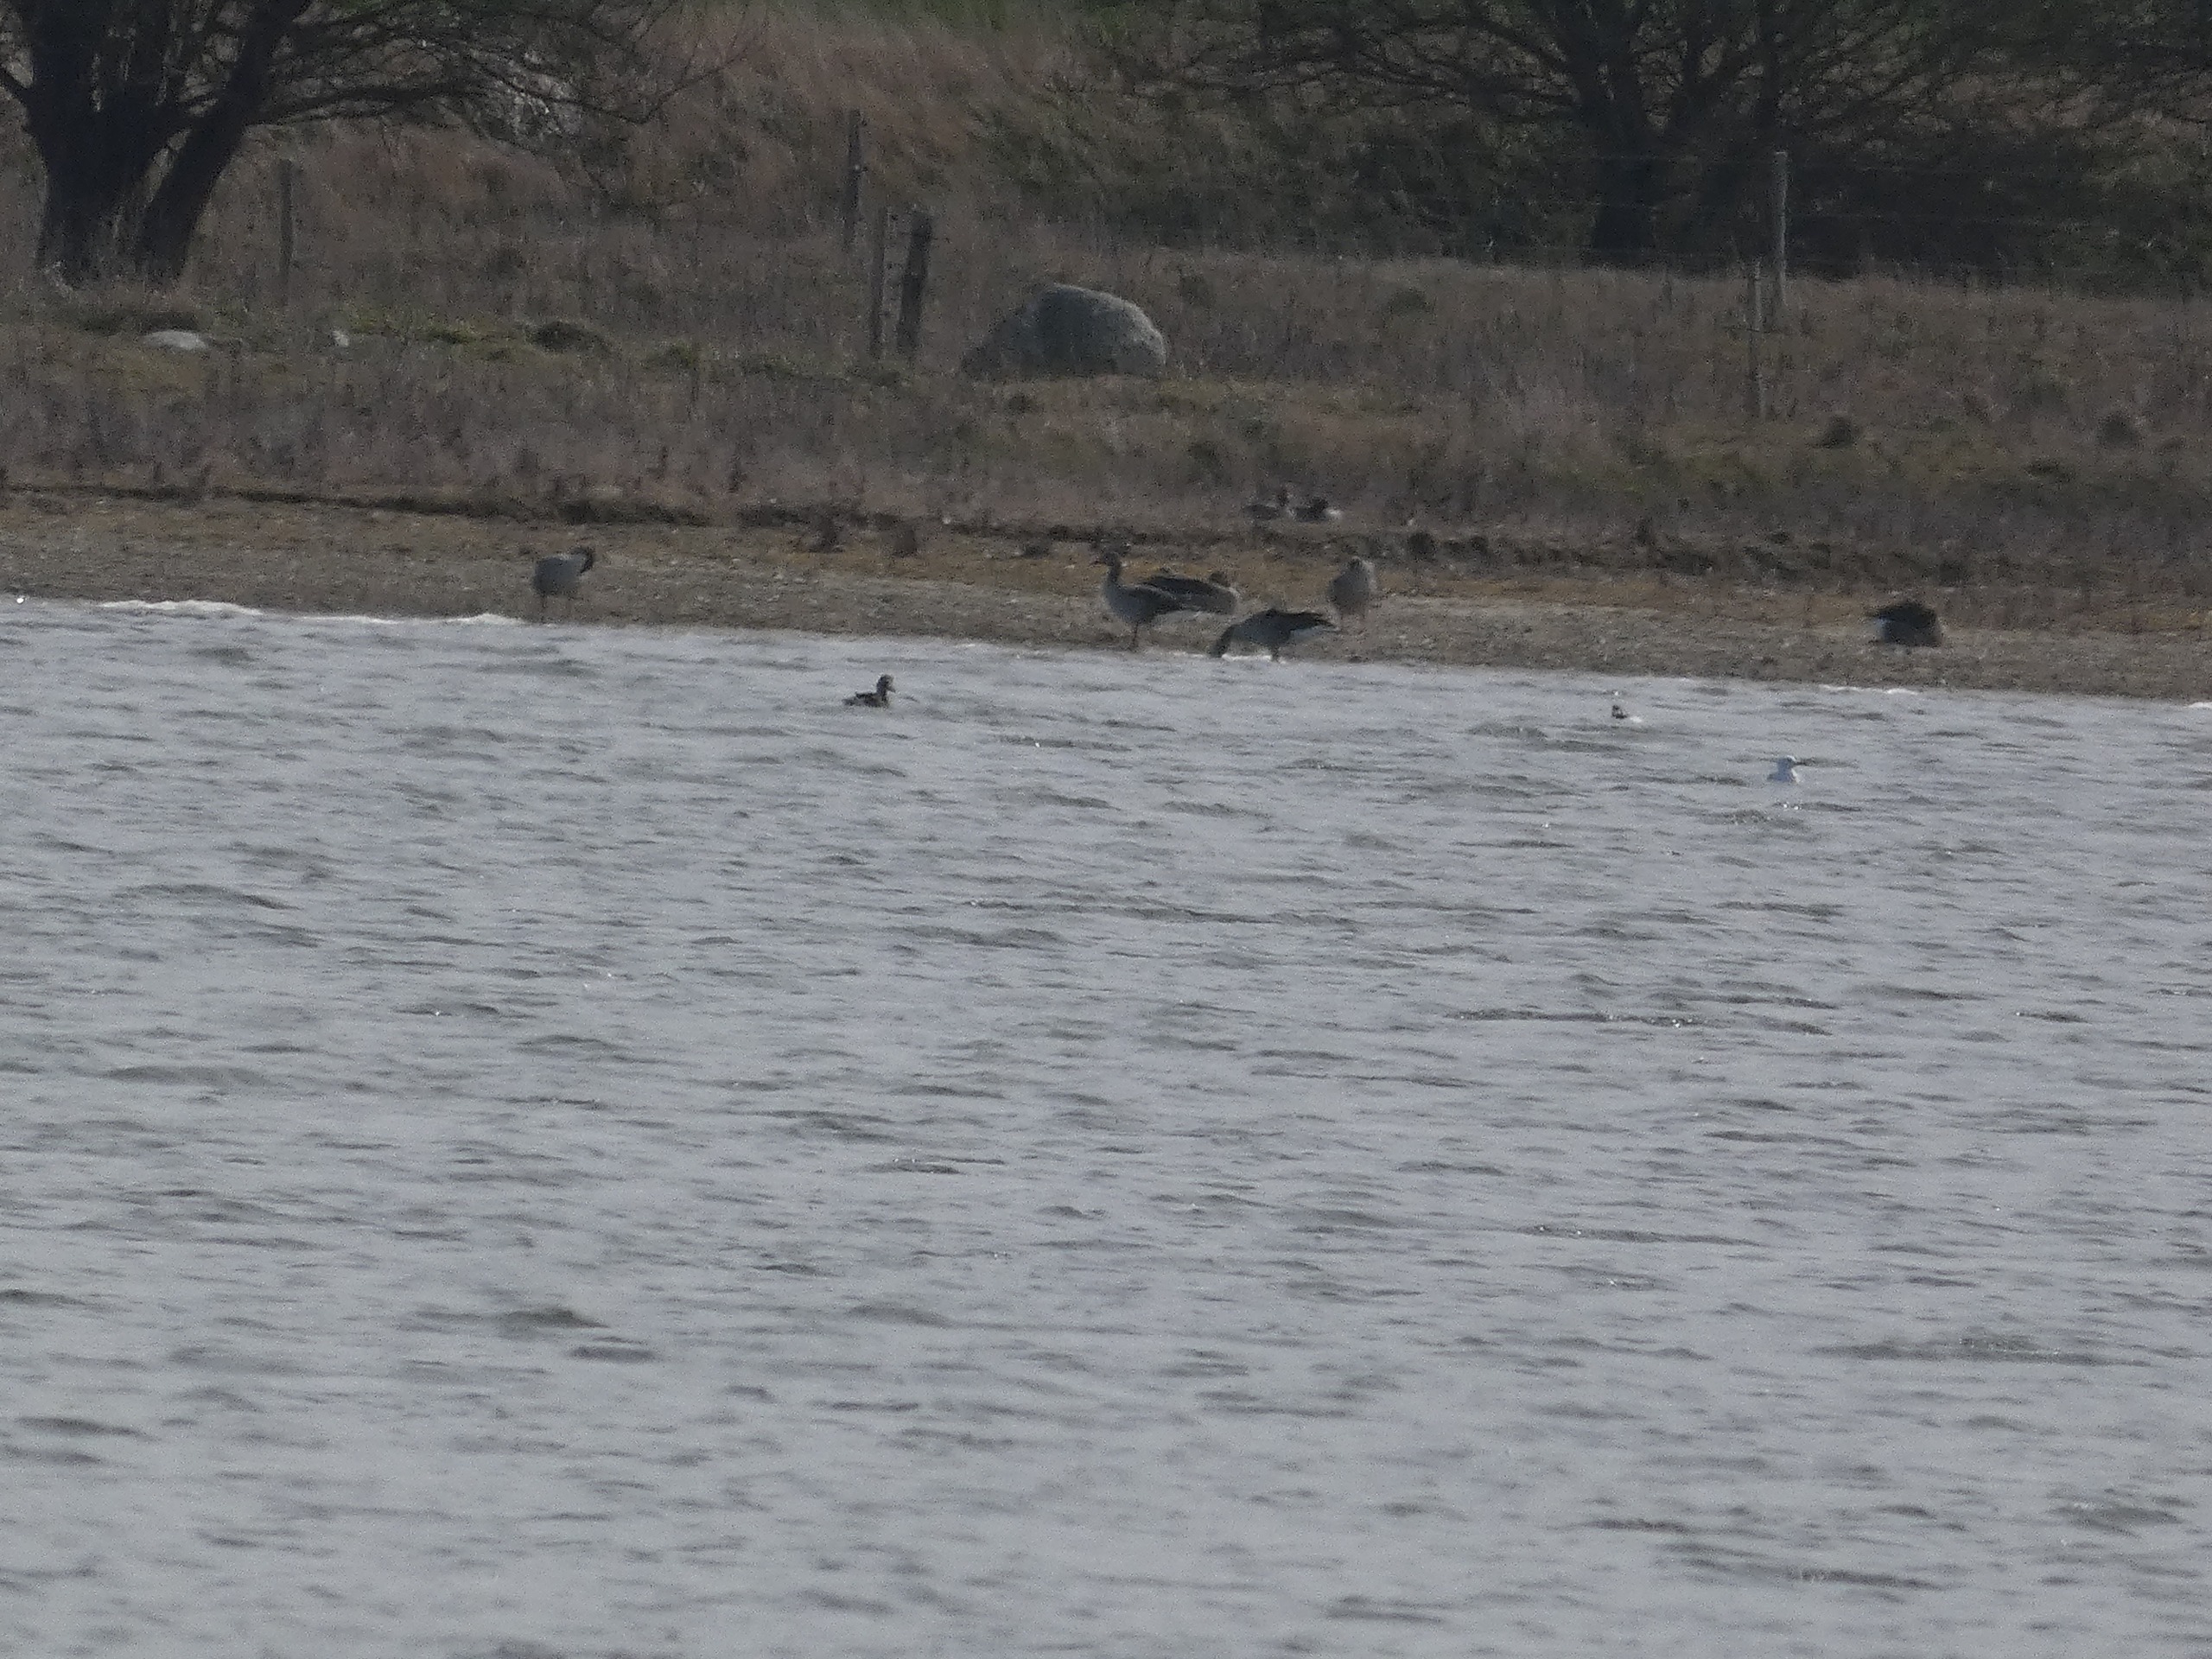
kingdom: Animalia
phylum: Chordata
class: Aves
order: Anseriformes
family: Anatidae
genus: Anser
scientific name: Anser anser
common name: Grågås
